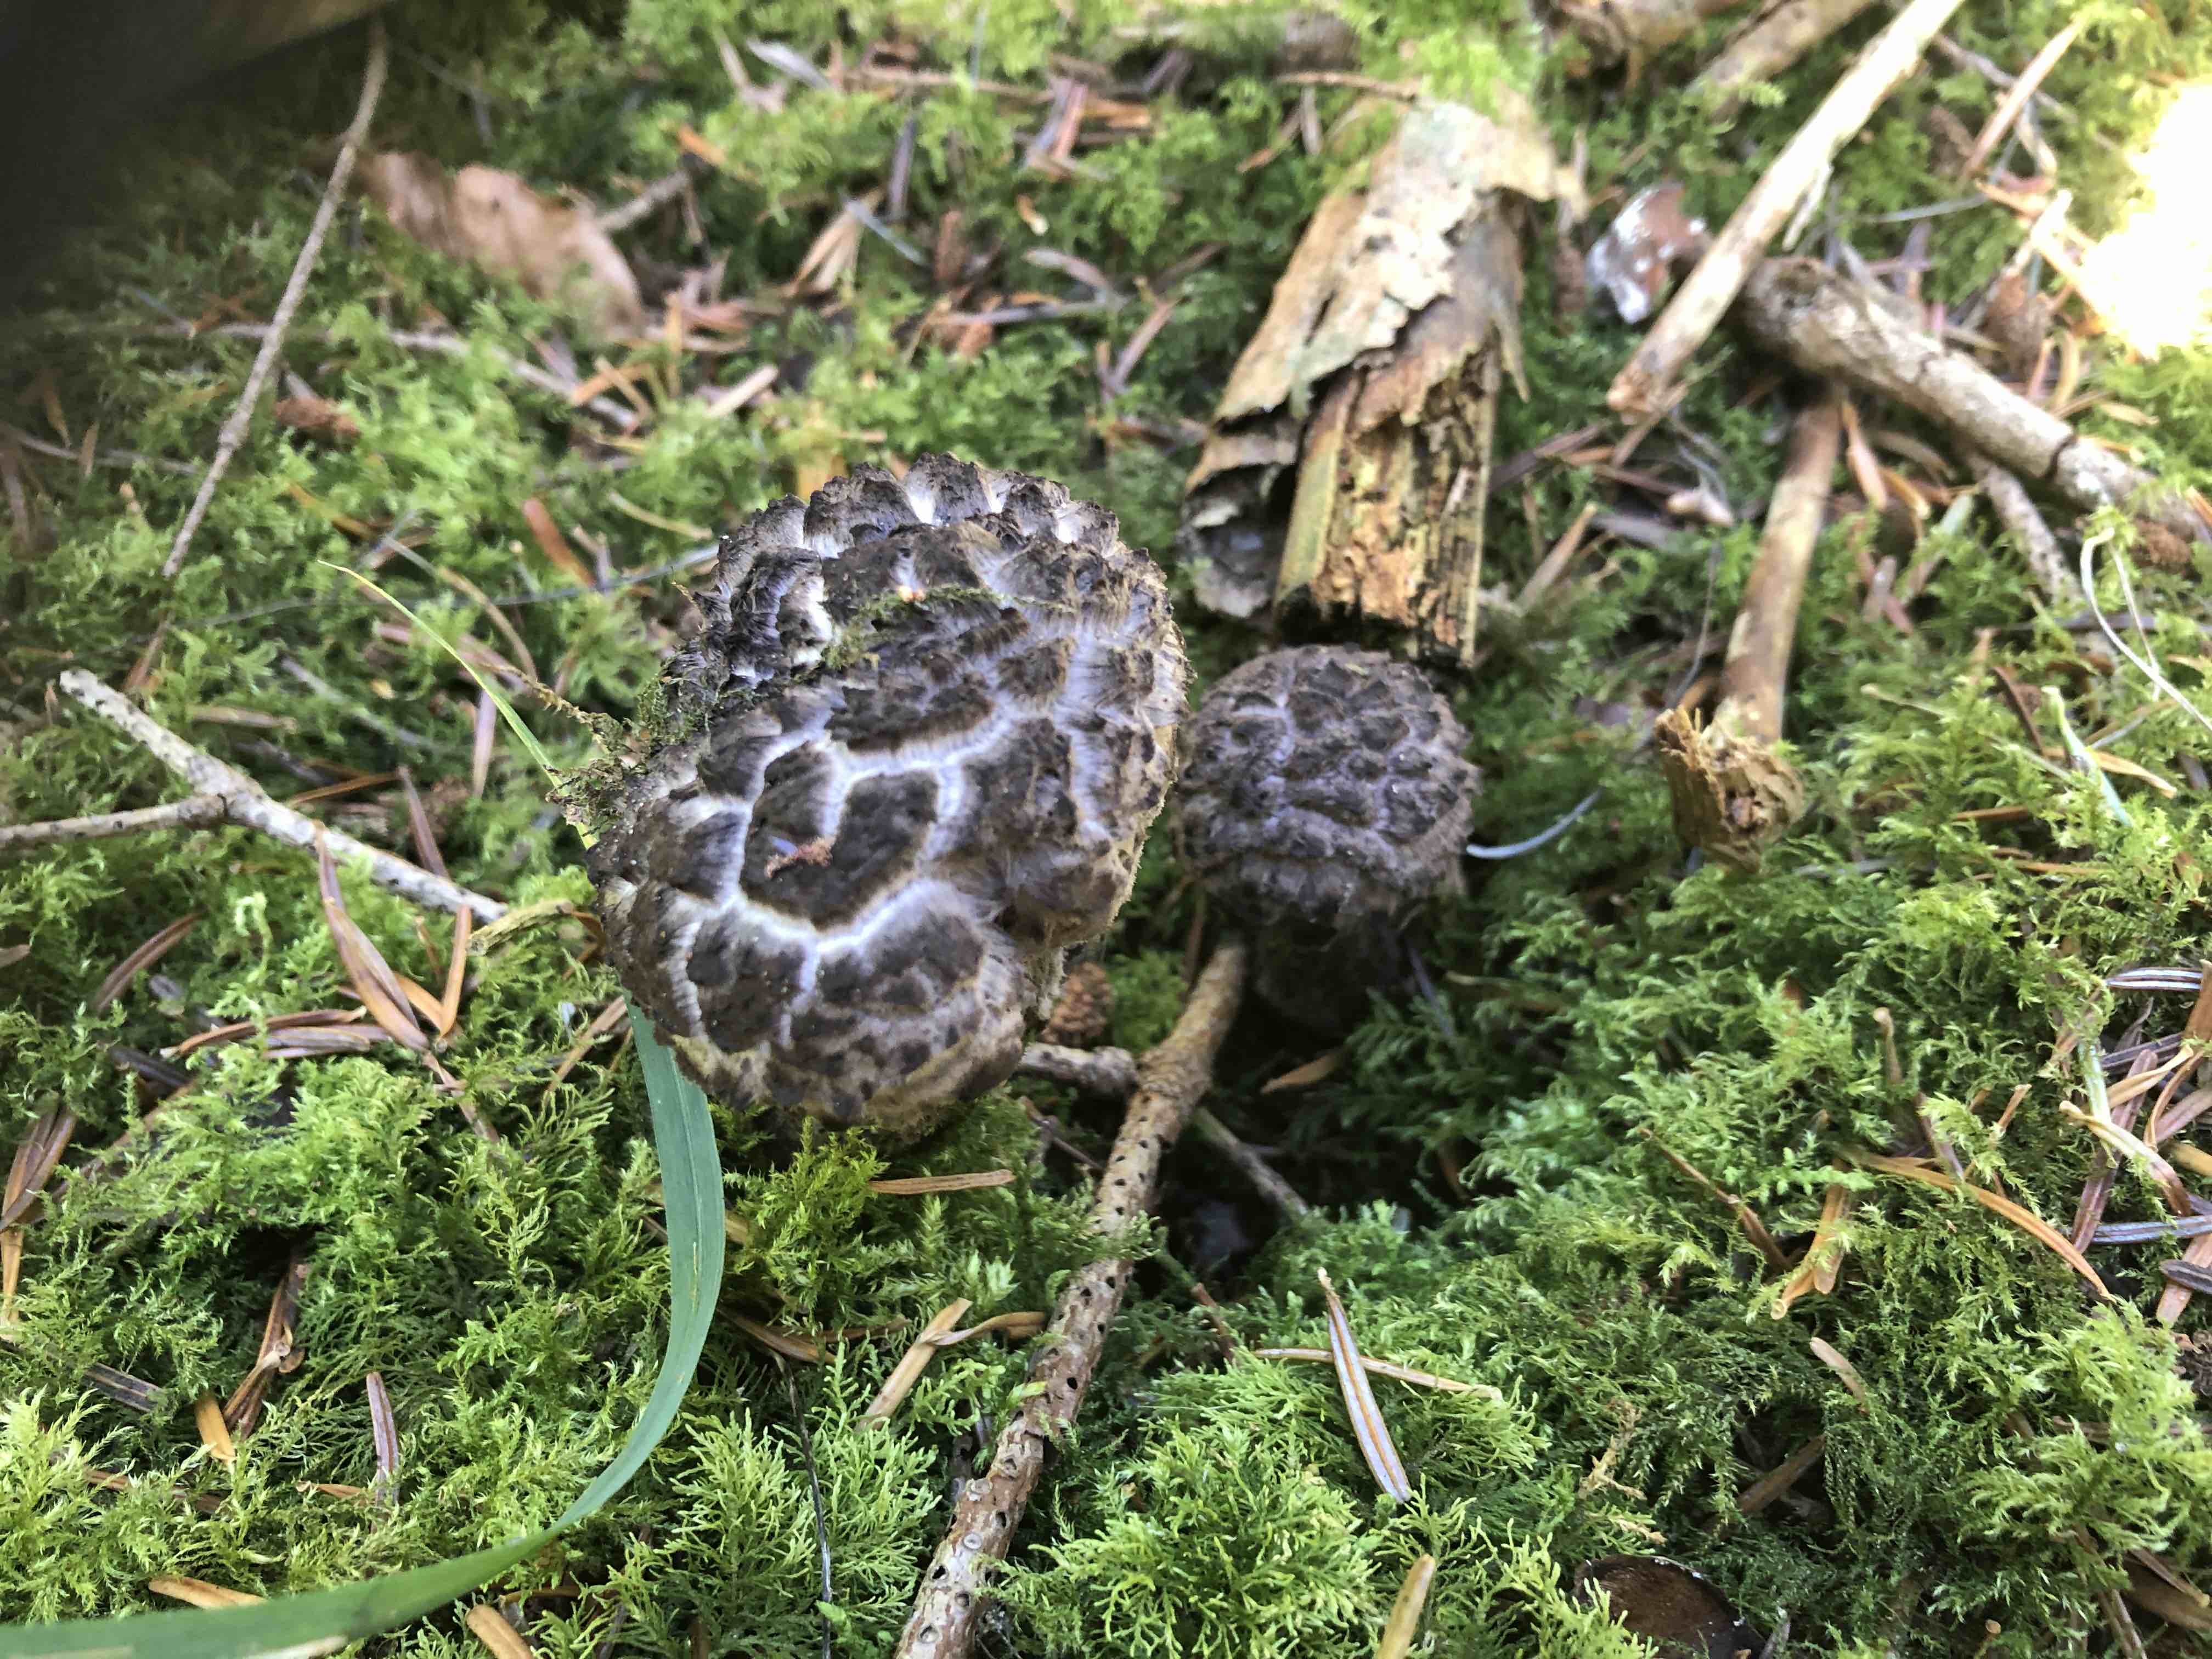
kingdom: Fungi
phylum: Basidiomycota
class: Agaricomycetes
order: Boletales
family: Boletaceae
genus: Strobilomyces
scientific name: Strobilomyces strobilaceus
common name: koglerørhat
